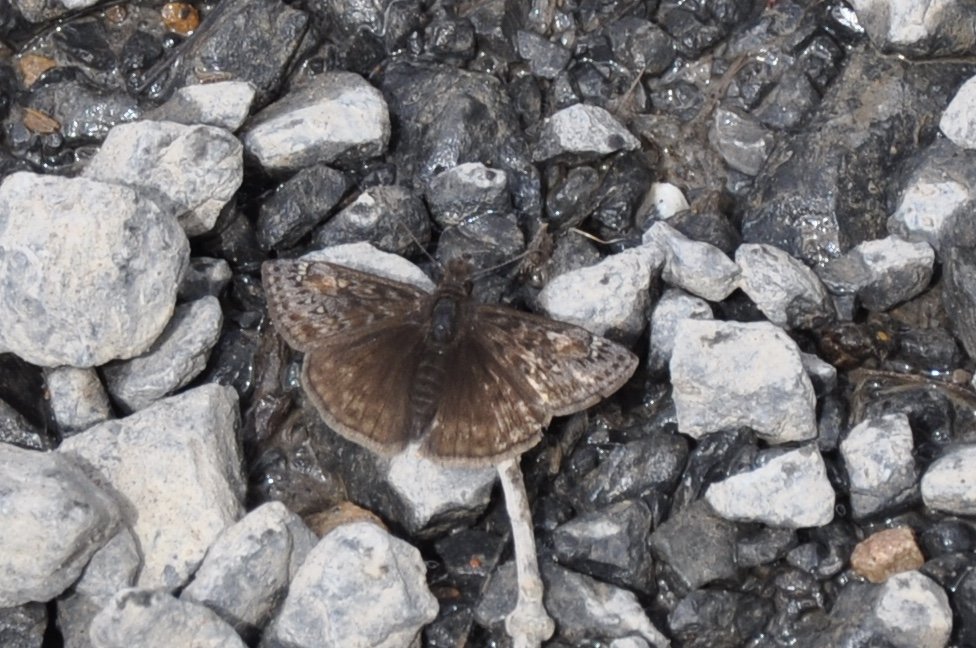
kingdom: Animalia
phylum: Arthropoda
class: Insecta
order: Lepidoptera
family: Hesperiidae
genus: Gesta
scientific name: Gesta
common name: Juvenal's Duskywing
